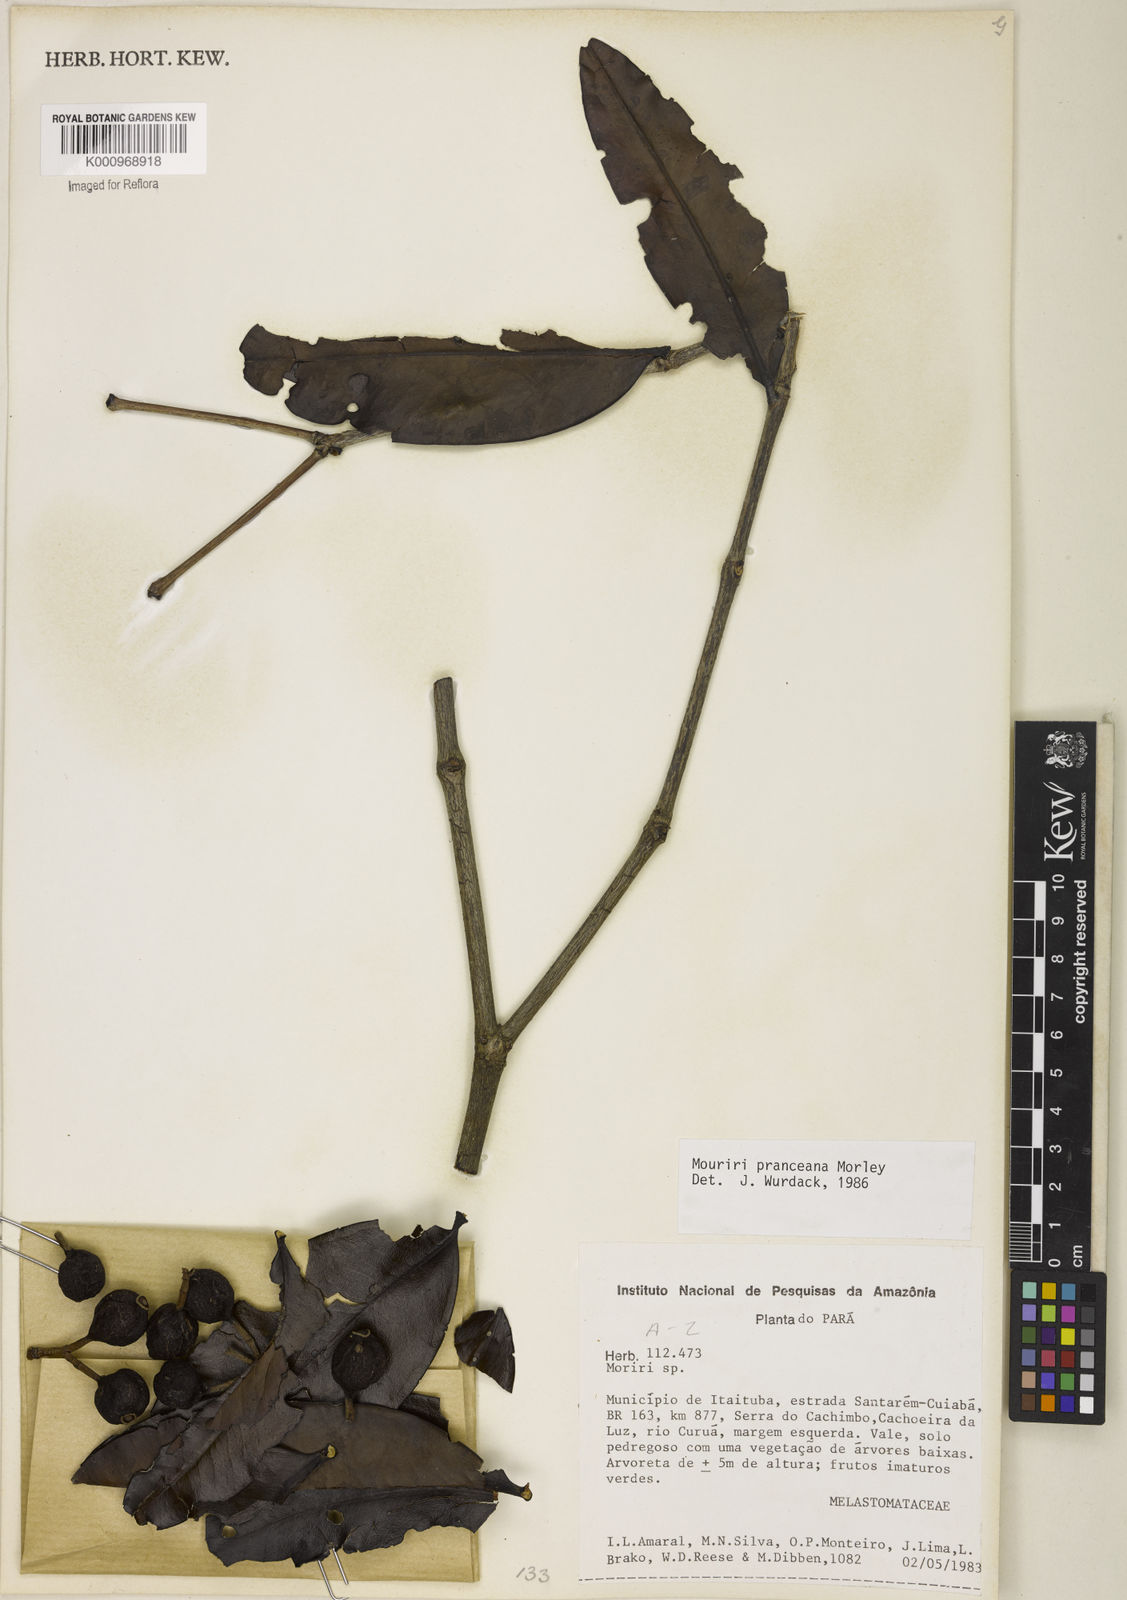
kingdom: Plantae
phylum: Tracheophyta
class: Magnoliopsida
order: Myrtales
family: Melastomataceae
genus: Mouriri
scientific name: Mouriri pranceana
